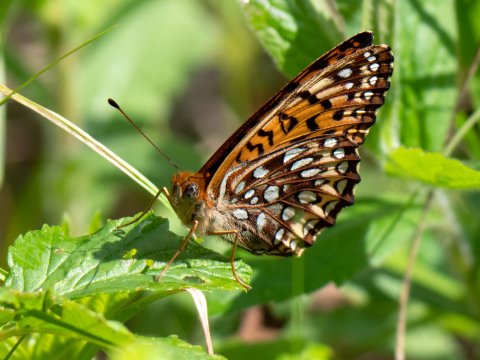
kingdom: Animalia
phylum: Arthropoda
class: Insecta
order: Lepidoptera
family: Nymphalidae
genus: Speyeria
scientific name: Speyeria atlantis
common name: Atlantis Fritillary
